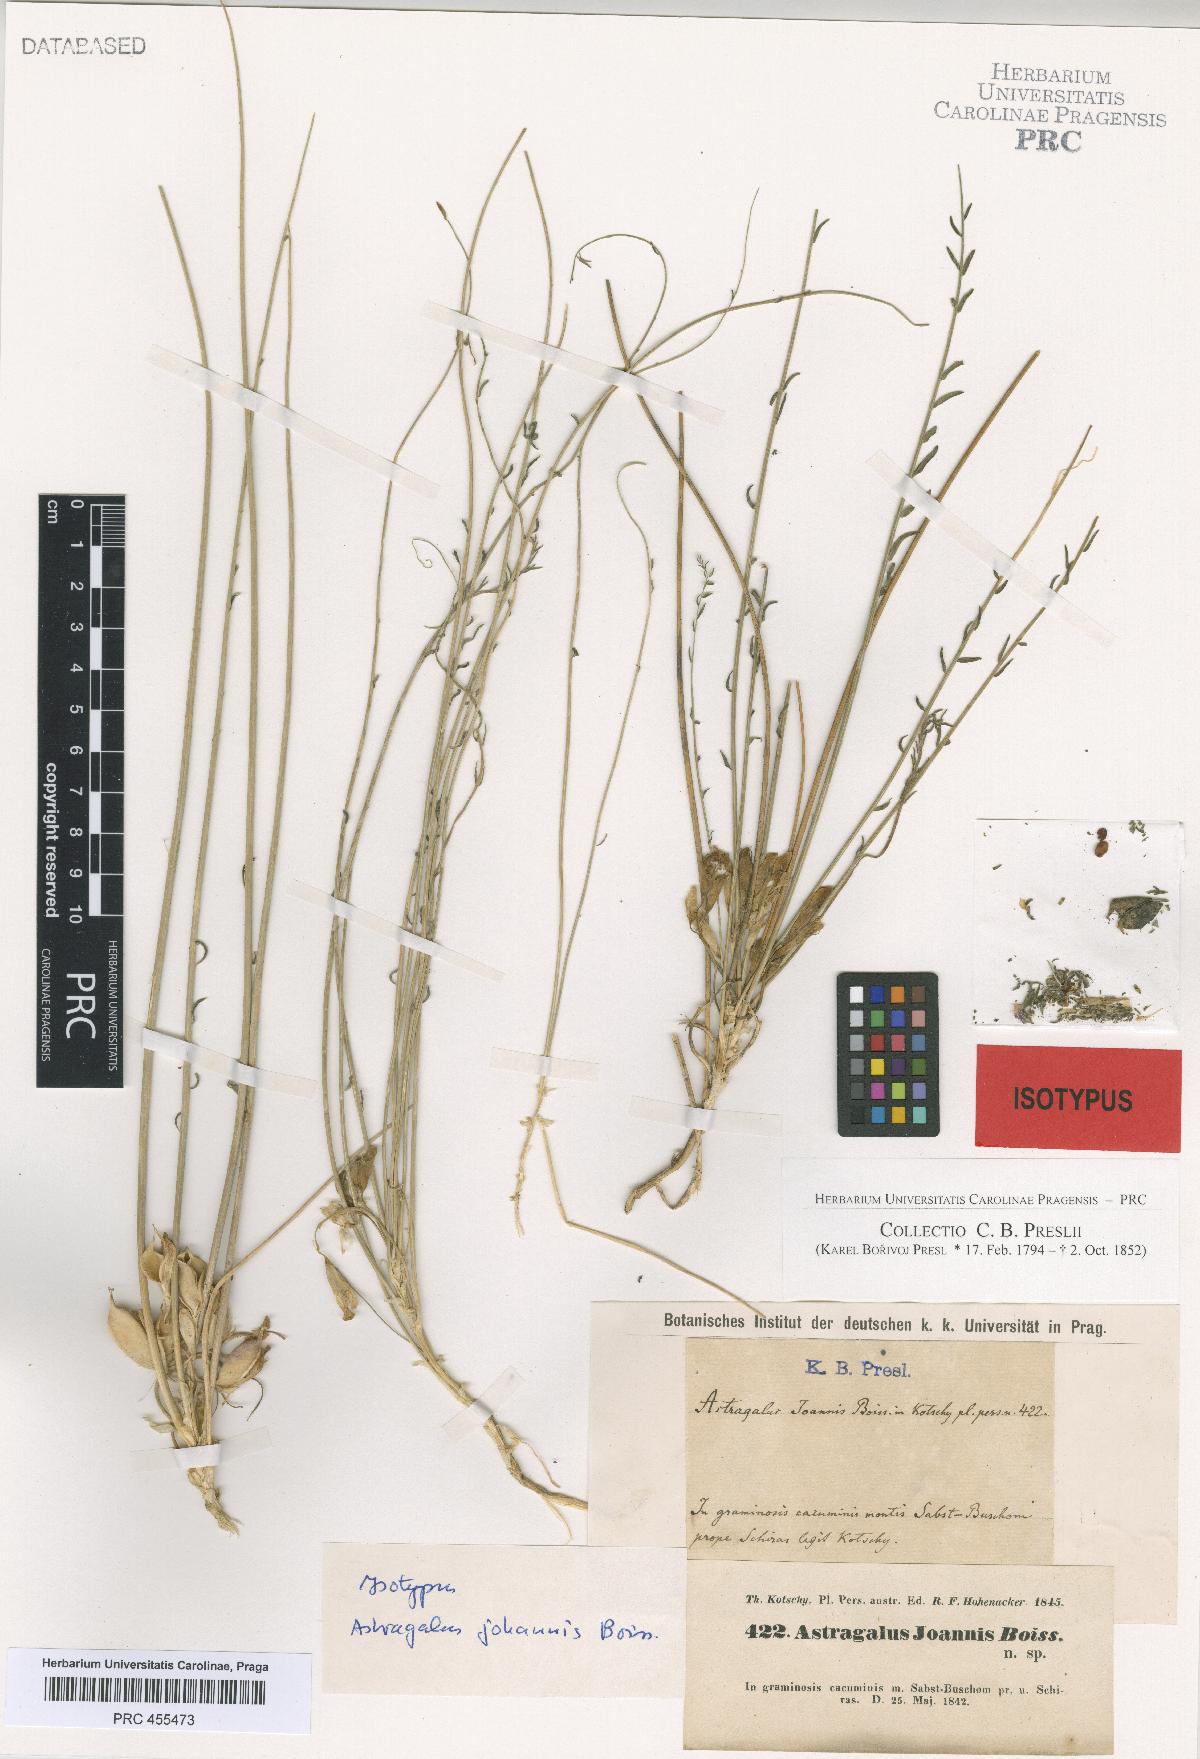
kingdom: Plantae
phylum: Tracheophyta
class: Magnoliopsida
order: Fabales
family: Fabaceae
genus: Astragalus
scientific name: Astragalus
